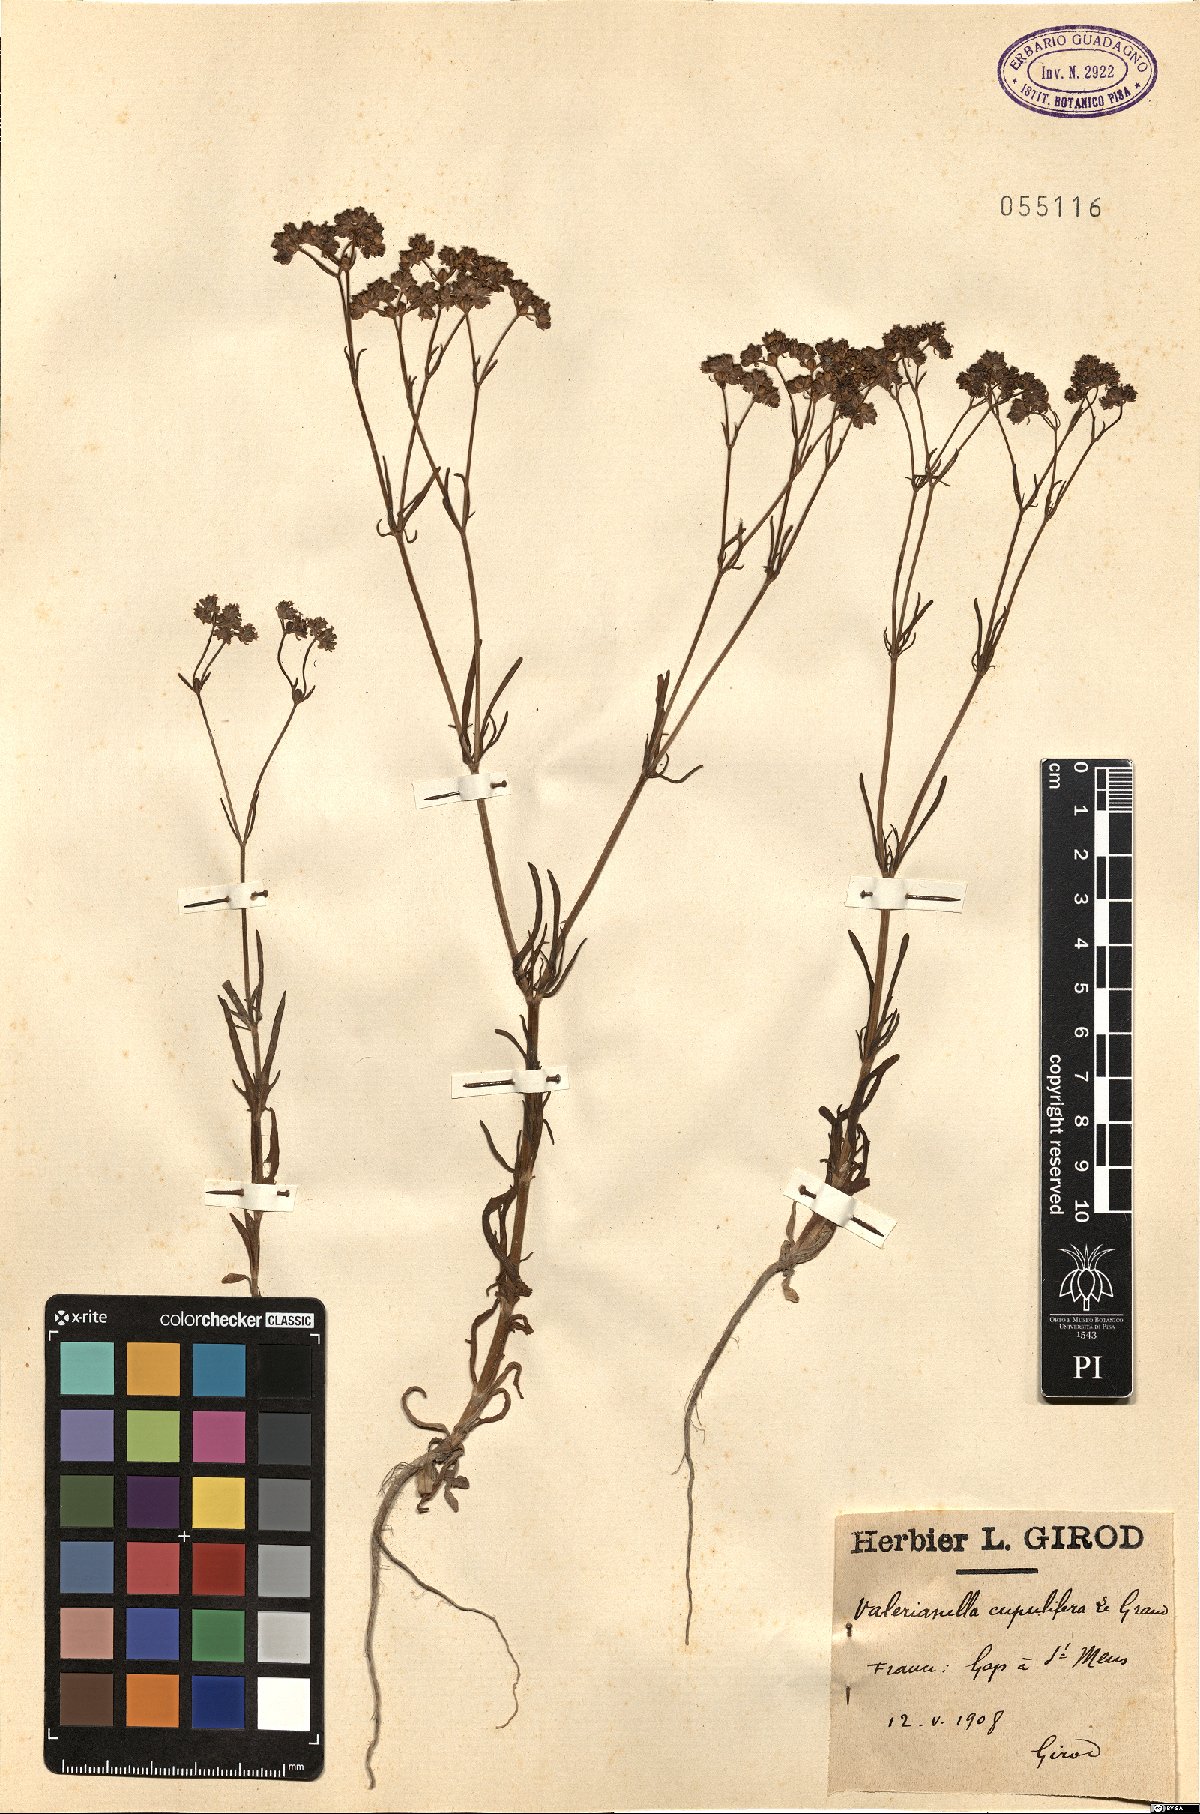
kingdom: Plantae
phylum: Tracheophyta
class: Magnoliopsida
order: Dipsacales
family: Caprifoliaceae
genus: Valerianella
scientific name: Valerianella pumila
